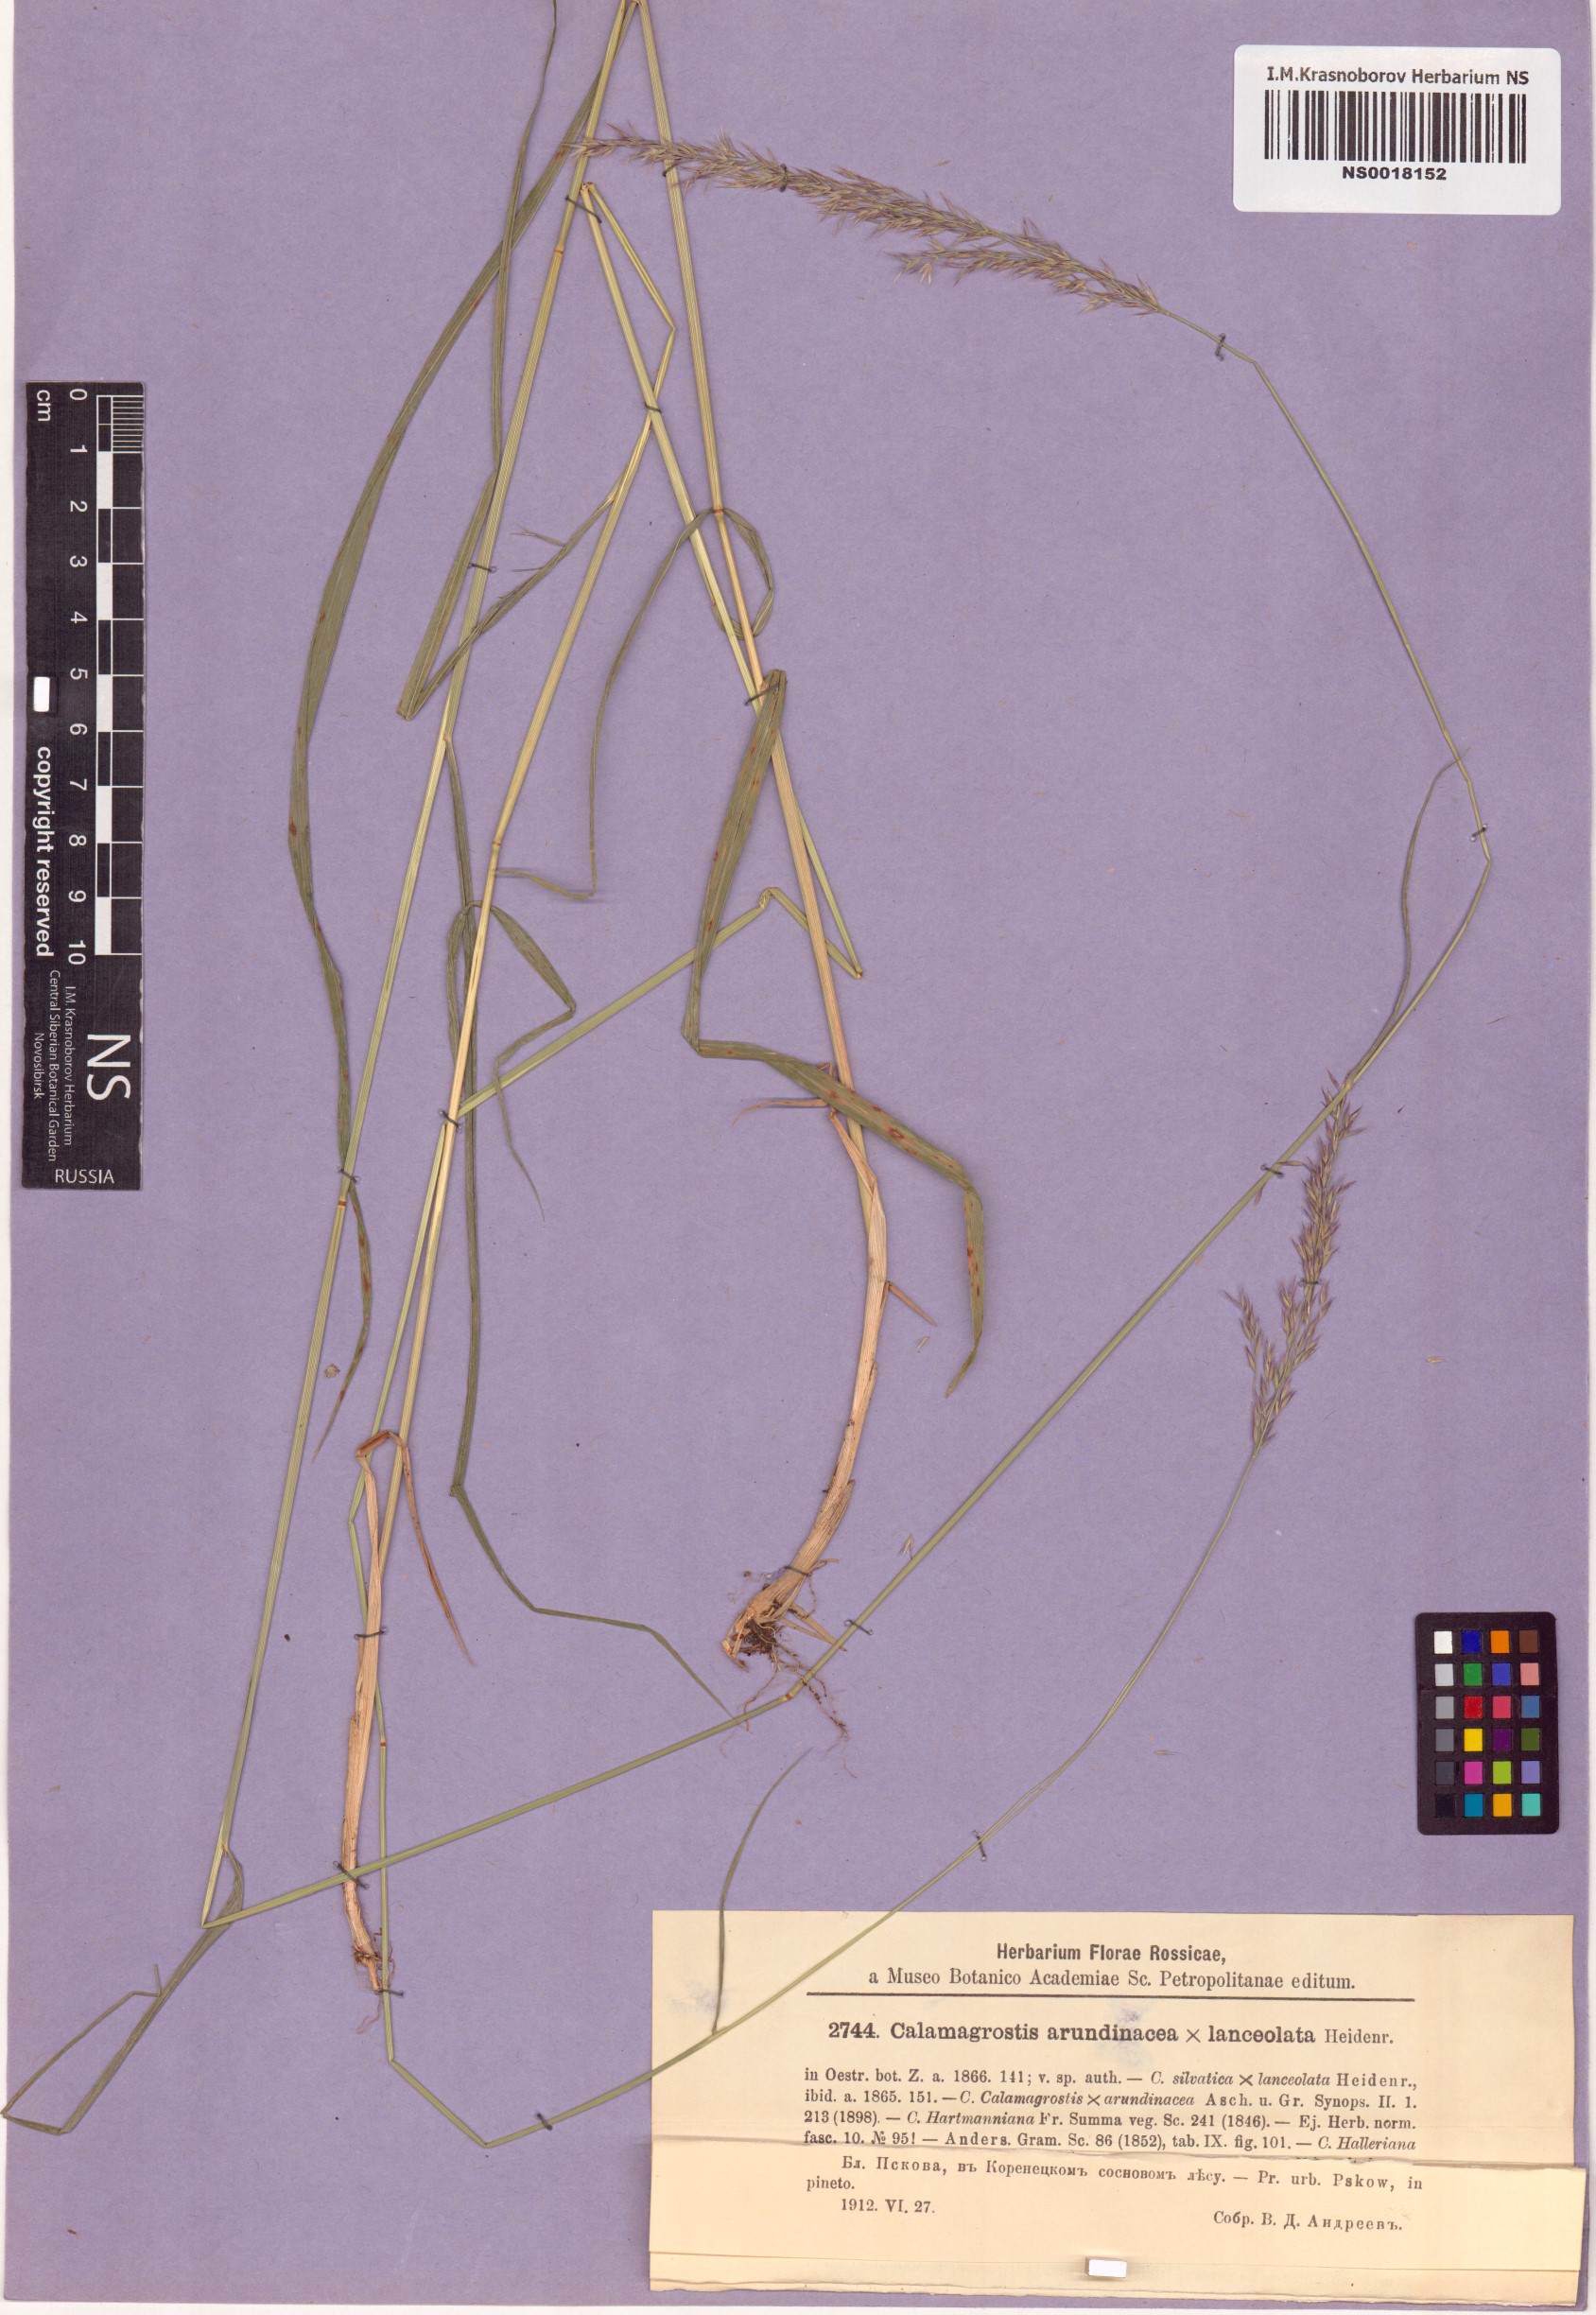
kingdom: Plantae
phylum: Tracheophyta
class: Liliopsida
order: Poales
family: Poaceae
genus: Calamagrostis
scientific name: Calamagrostis arundinacea
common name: Metskastik
